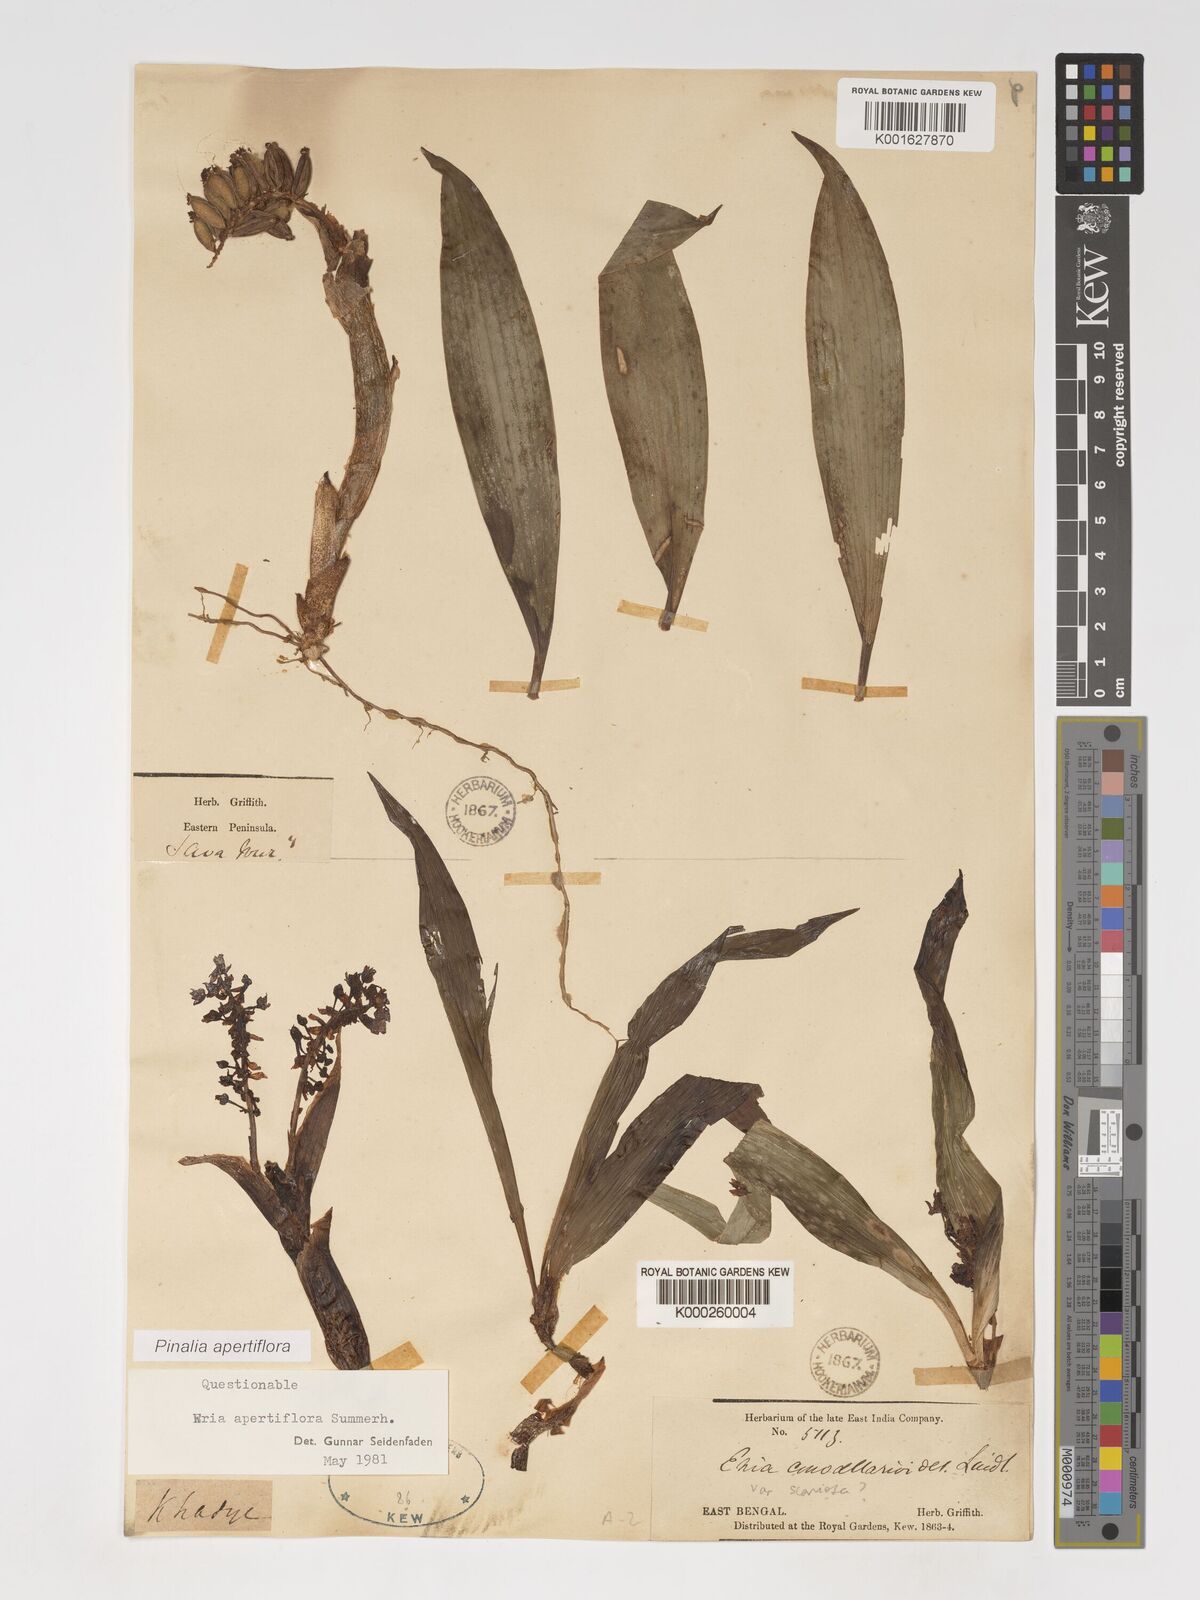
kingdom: Plantae
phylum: Tracheophyta
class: Liliopsida
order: Asparagales
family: Orchidaceae
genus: Pinalia
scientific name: Pinalia apertiflora
